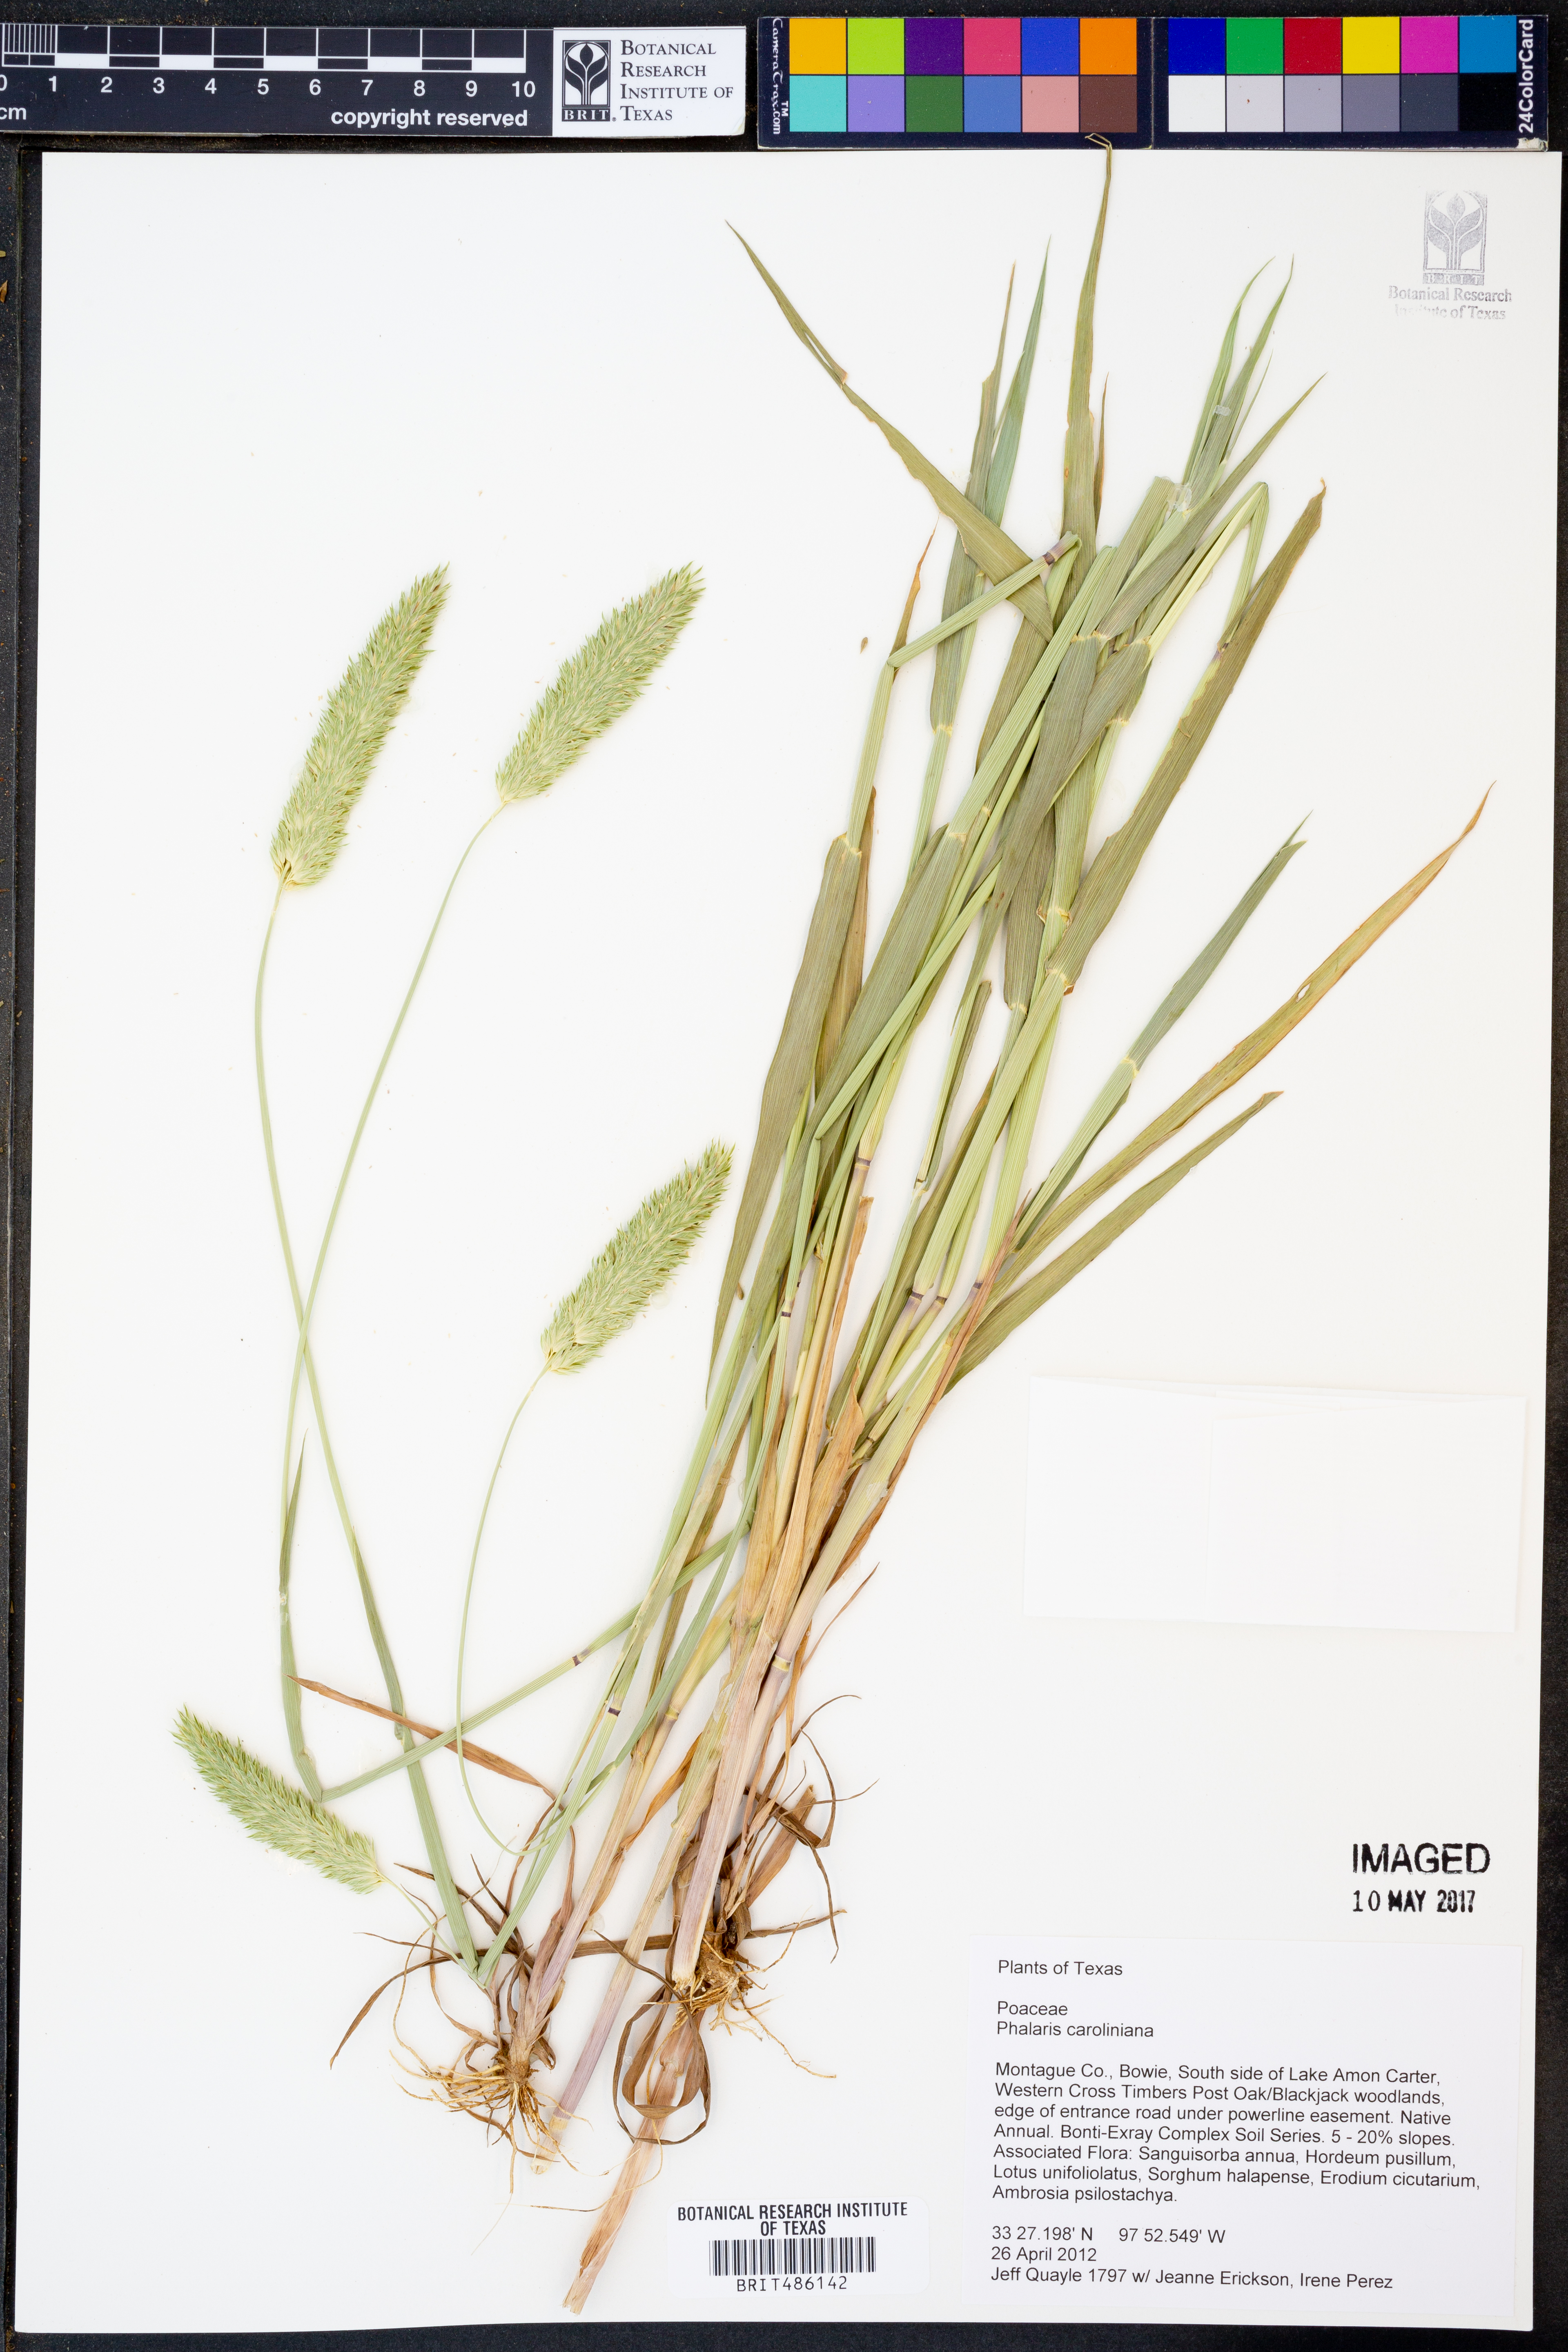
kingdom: Plantae
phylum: Tracheophyta
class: Liliopsida
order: Poales
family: Poaceae
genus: Phalaris
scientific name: Phalaris caroliniana
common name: May grass
